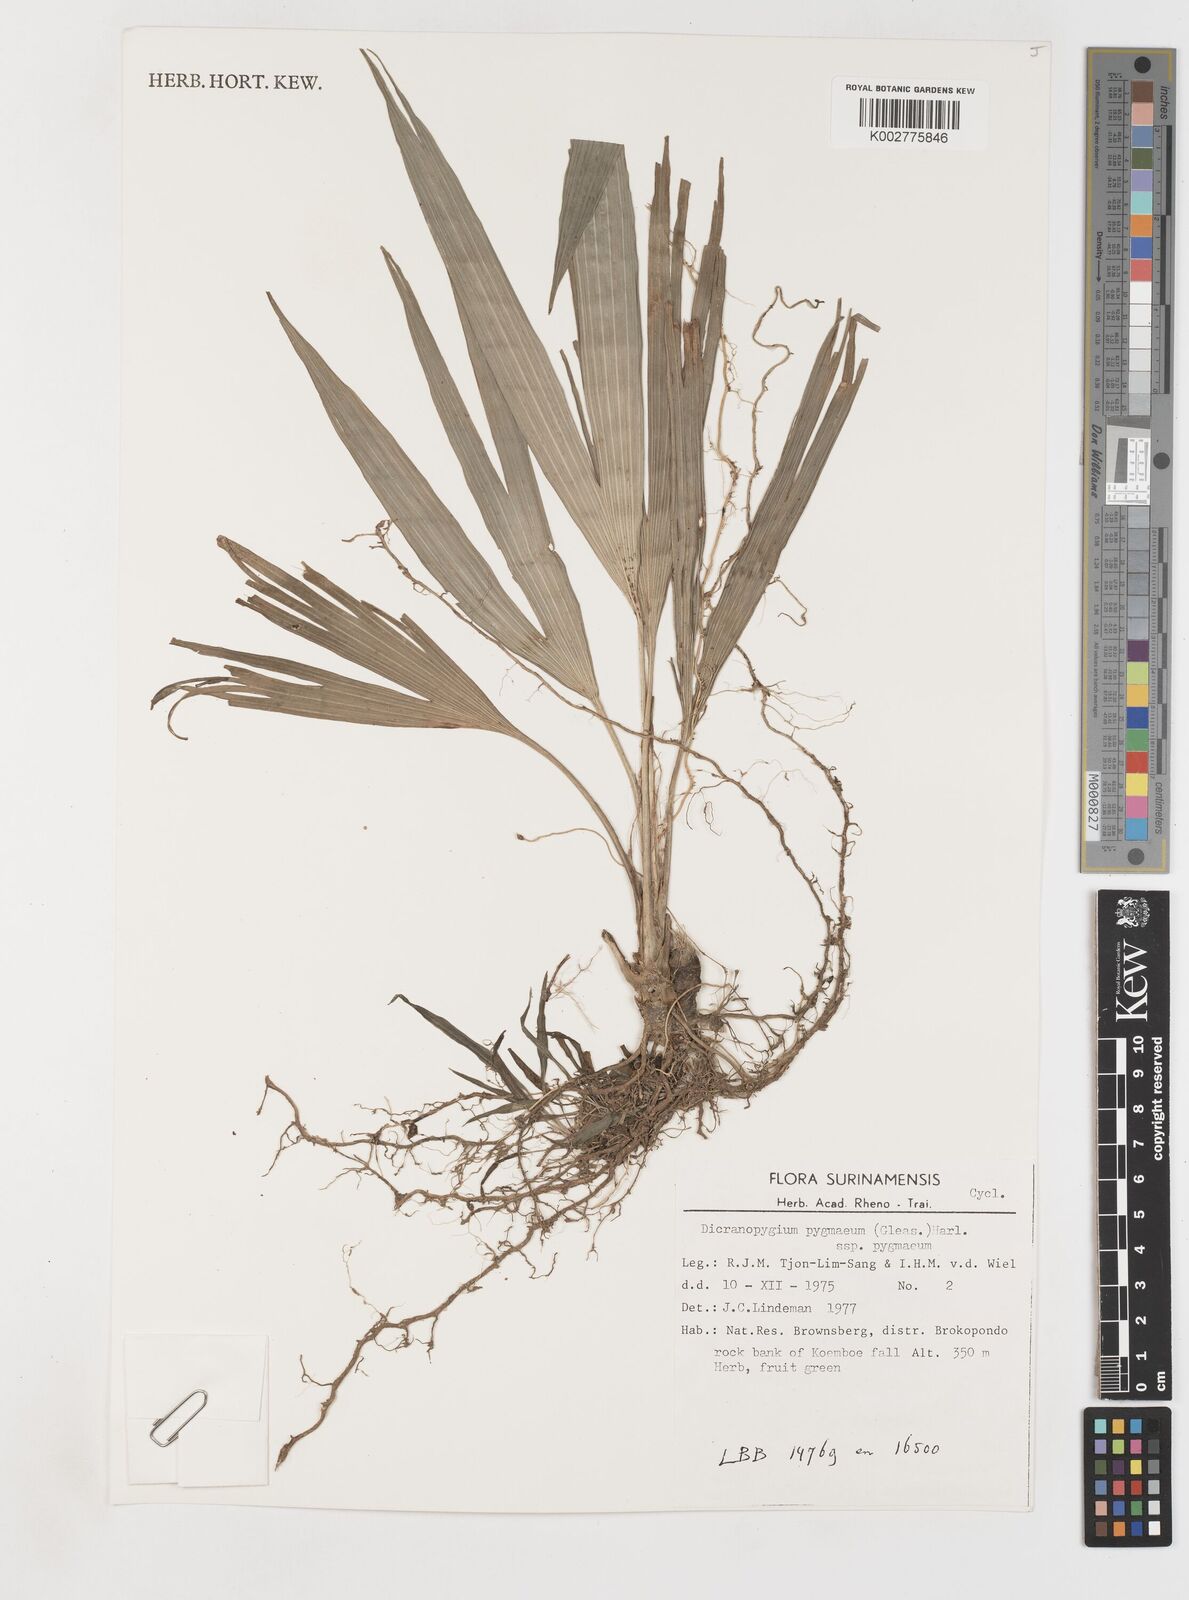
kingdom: Plantae
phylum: Tracheophyta
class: Liliopsida
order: Pandanales
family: Cyclanthaceae
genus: Dicranopygium
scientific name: Dicranopygium pygmaeum
